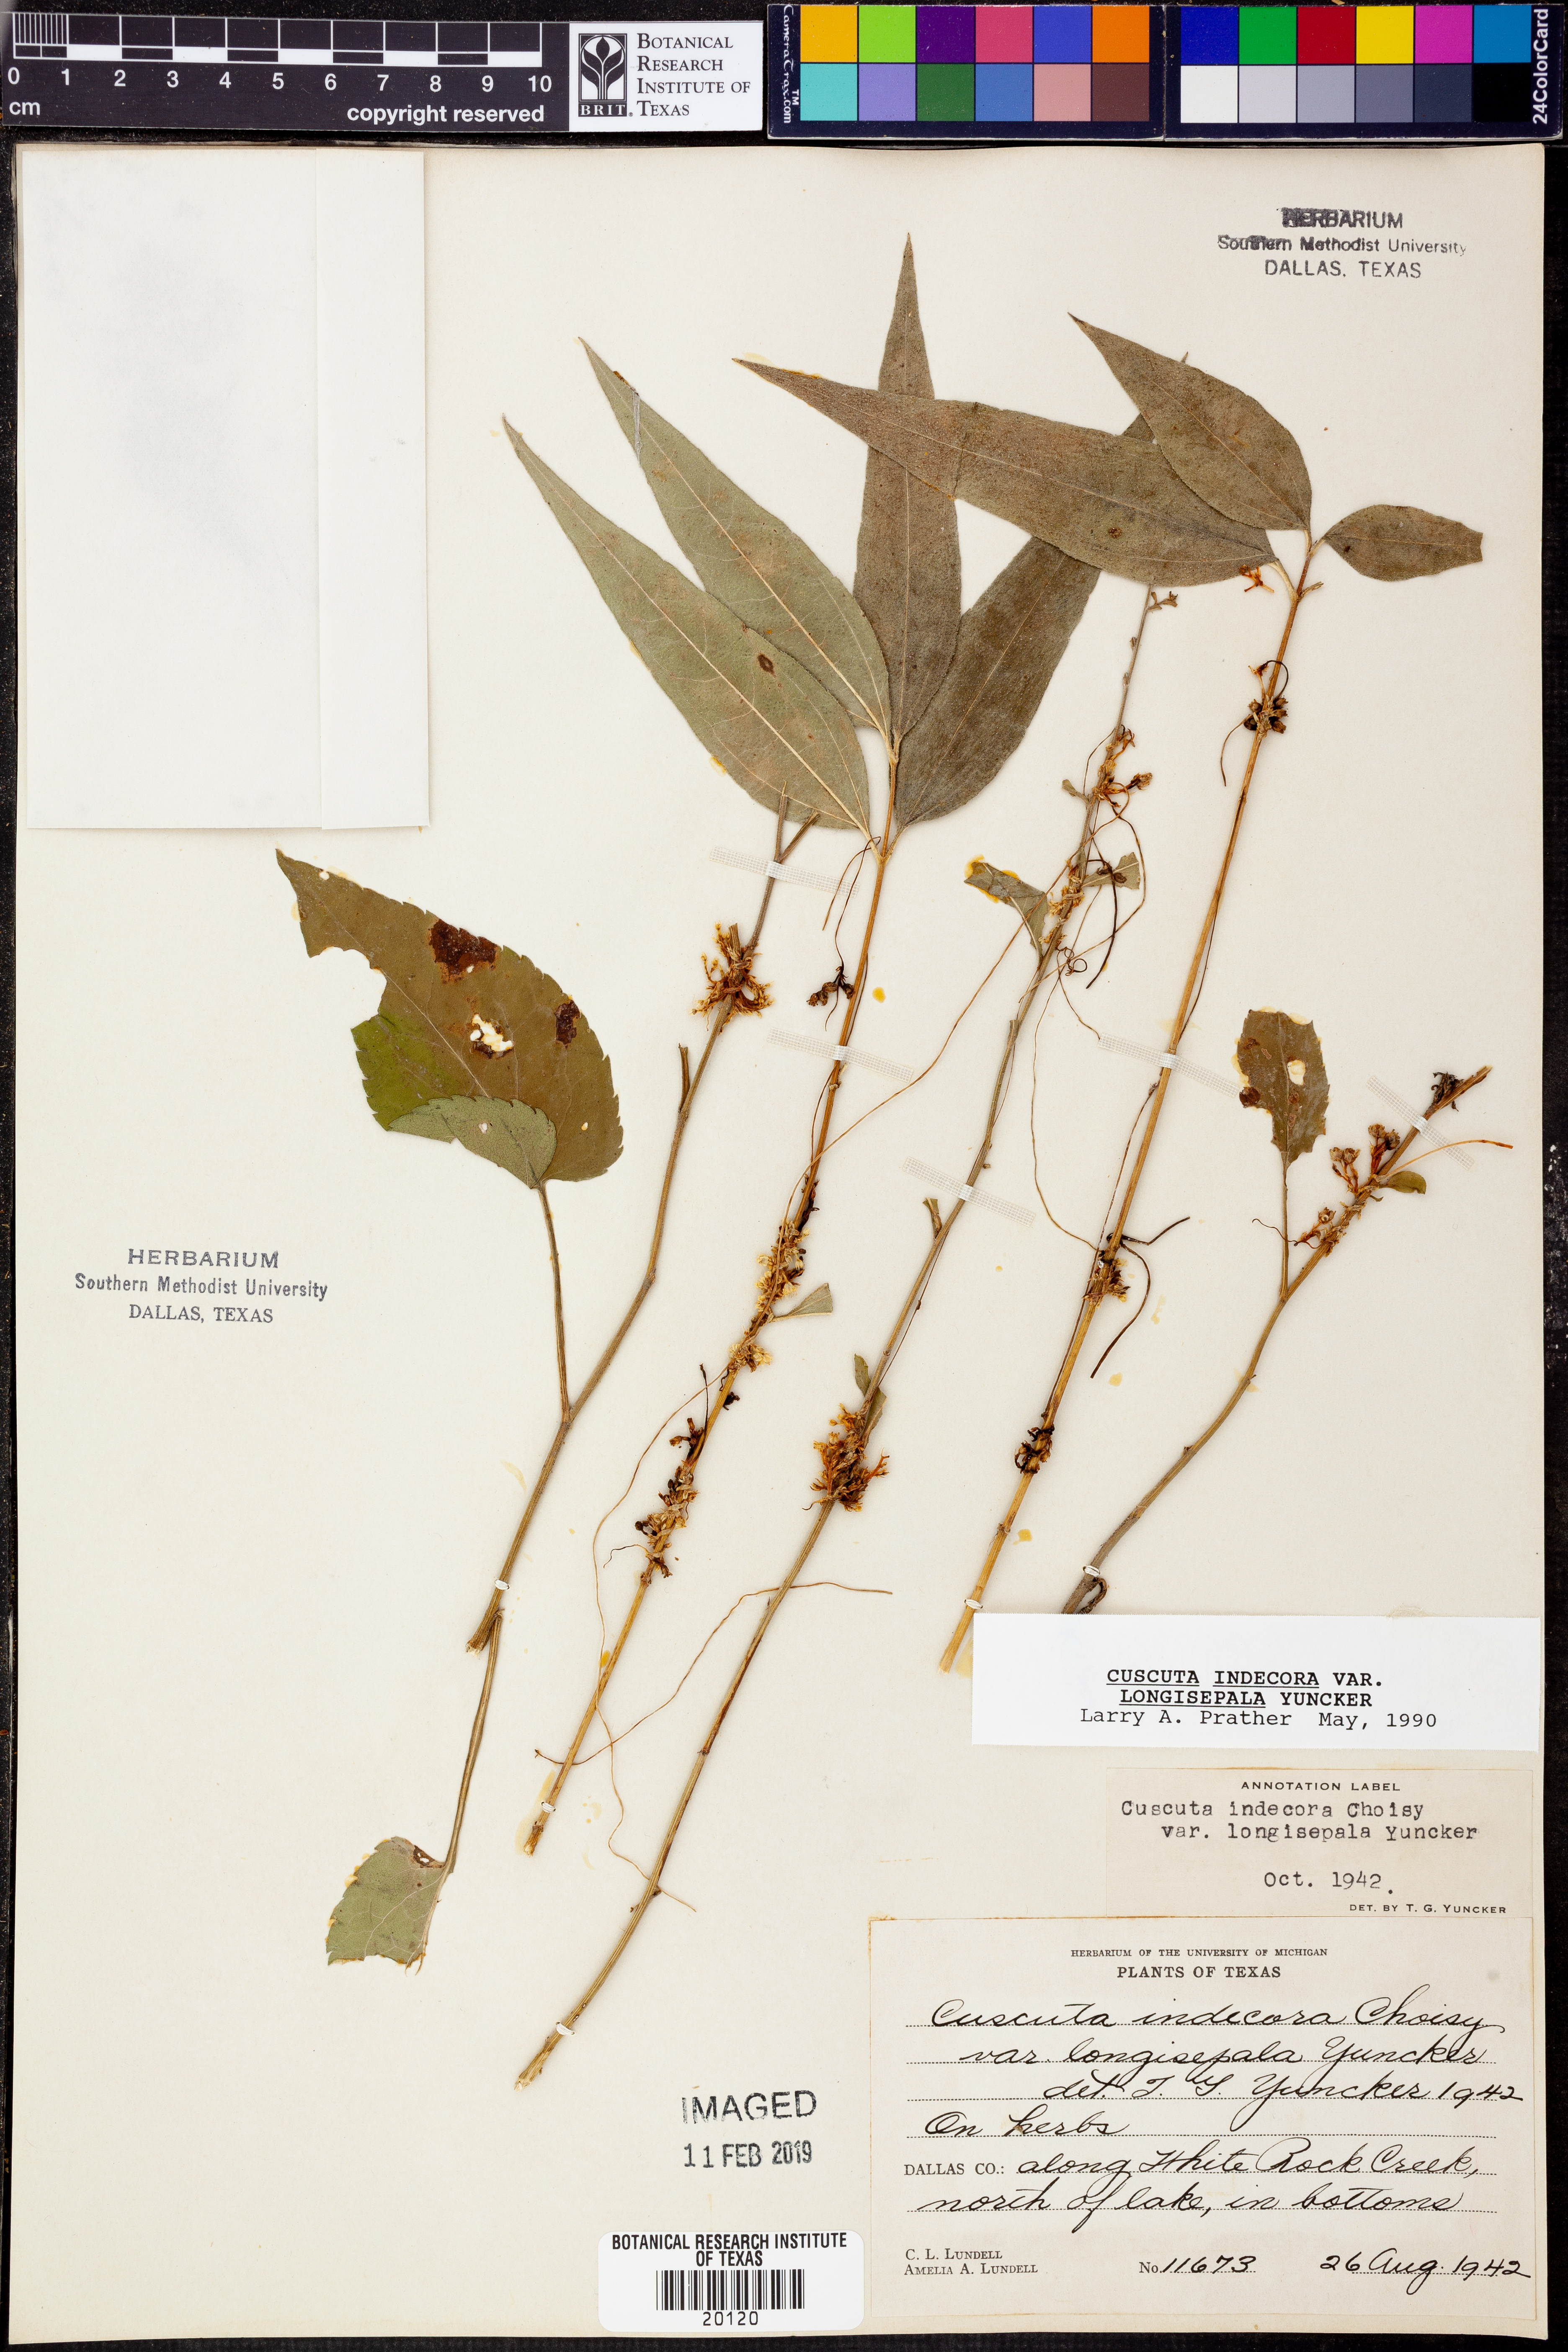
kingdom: Plantae
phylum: Tracheophyta
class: Magnoliopsida
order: Solanales
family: Convolvulaceae
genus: Cuscuta
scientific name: Cuscuta indecora
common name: Large-seed dodder
